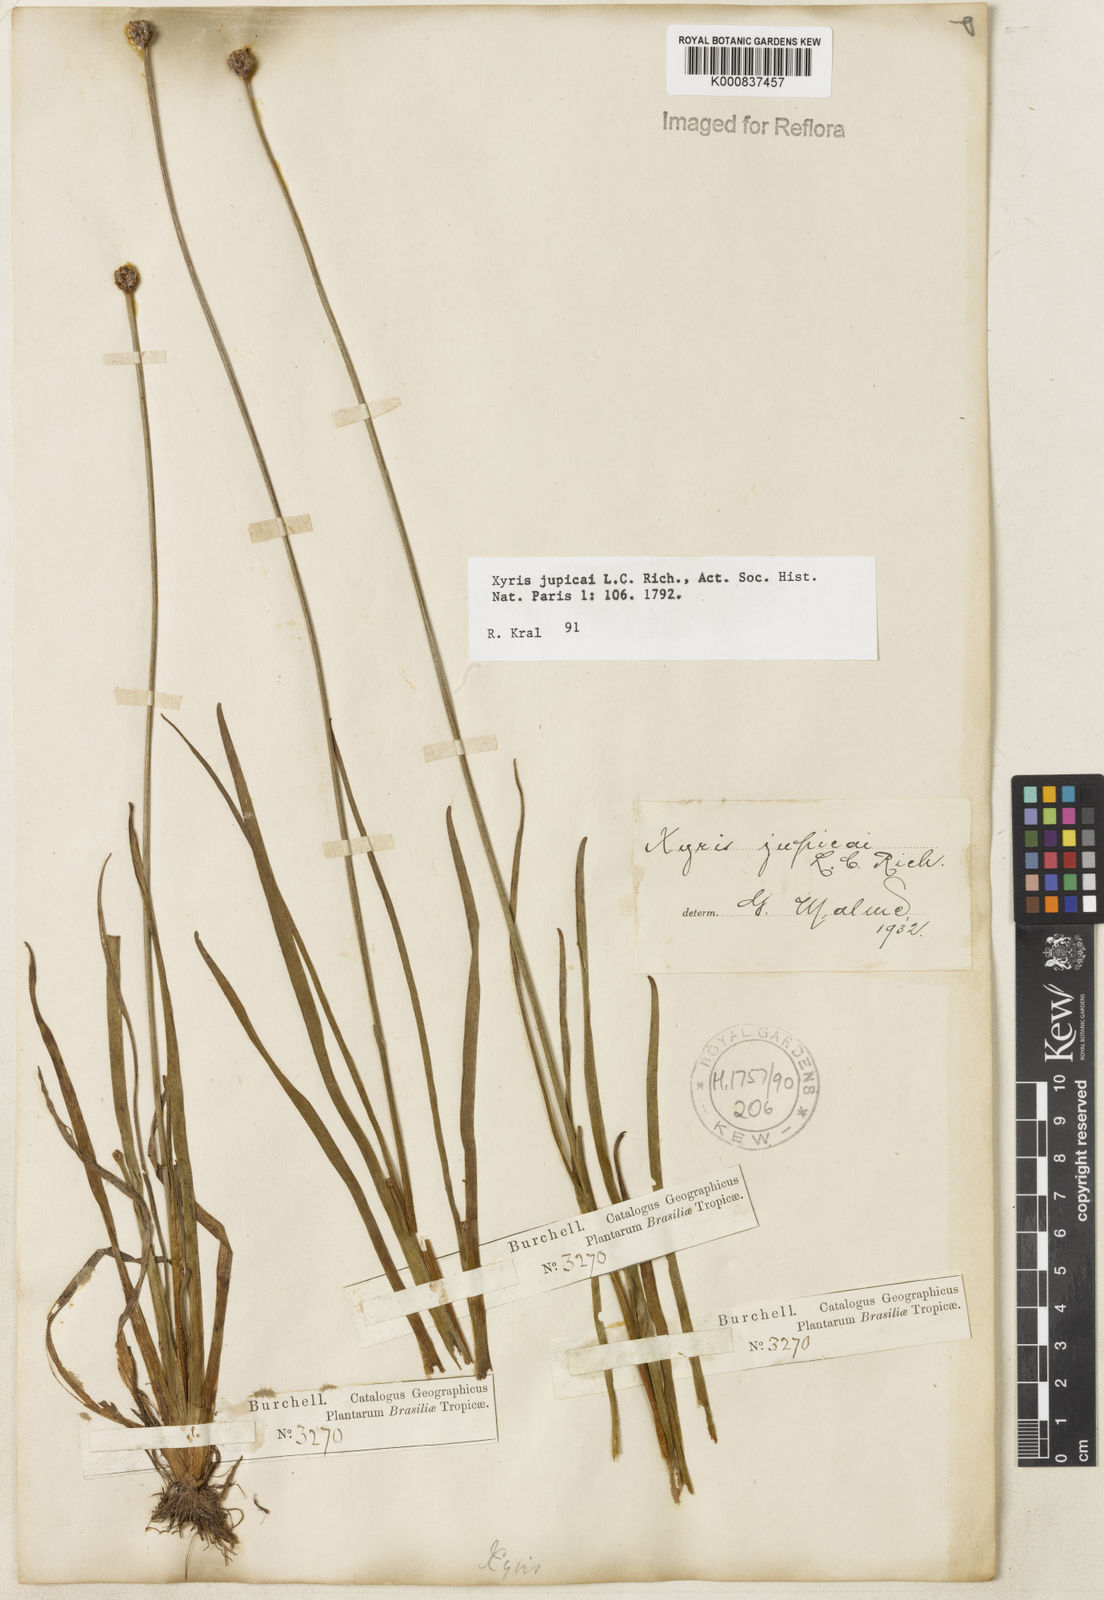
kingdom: Plantae
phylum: Tracheophyta
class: Liliopsida
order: Poales
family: Xyridaceae
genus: Xyris
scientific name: Xyris jupicai
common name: Richard's yelloweyed grass
